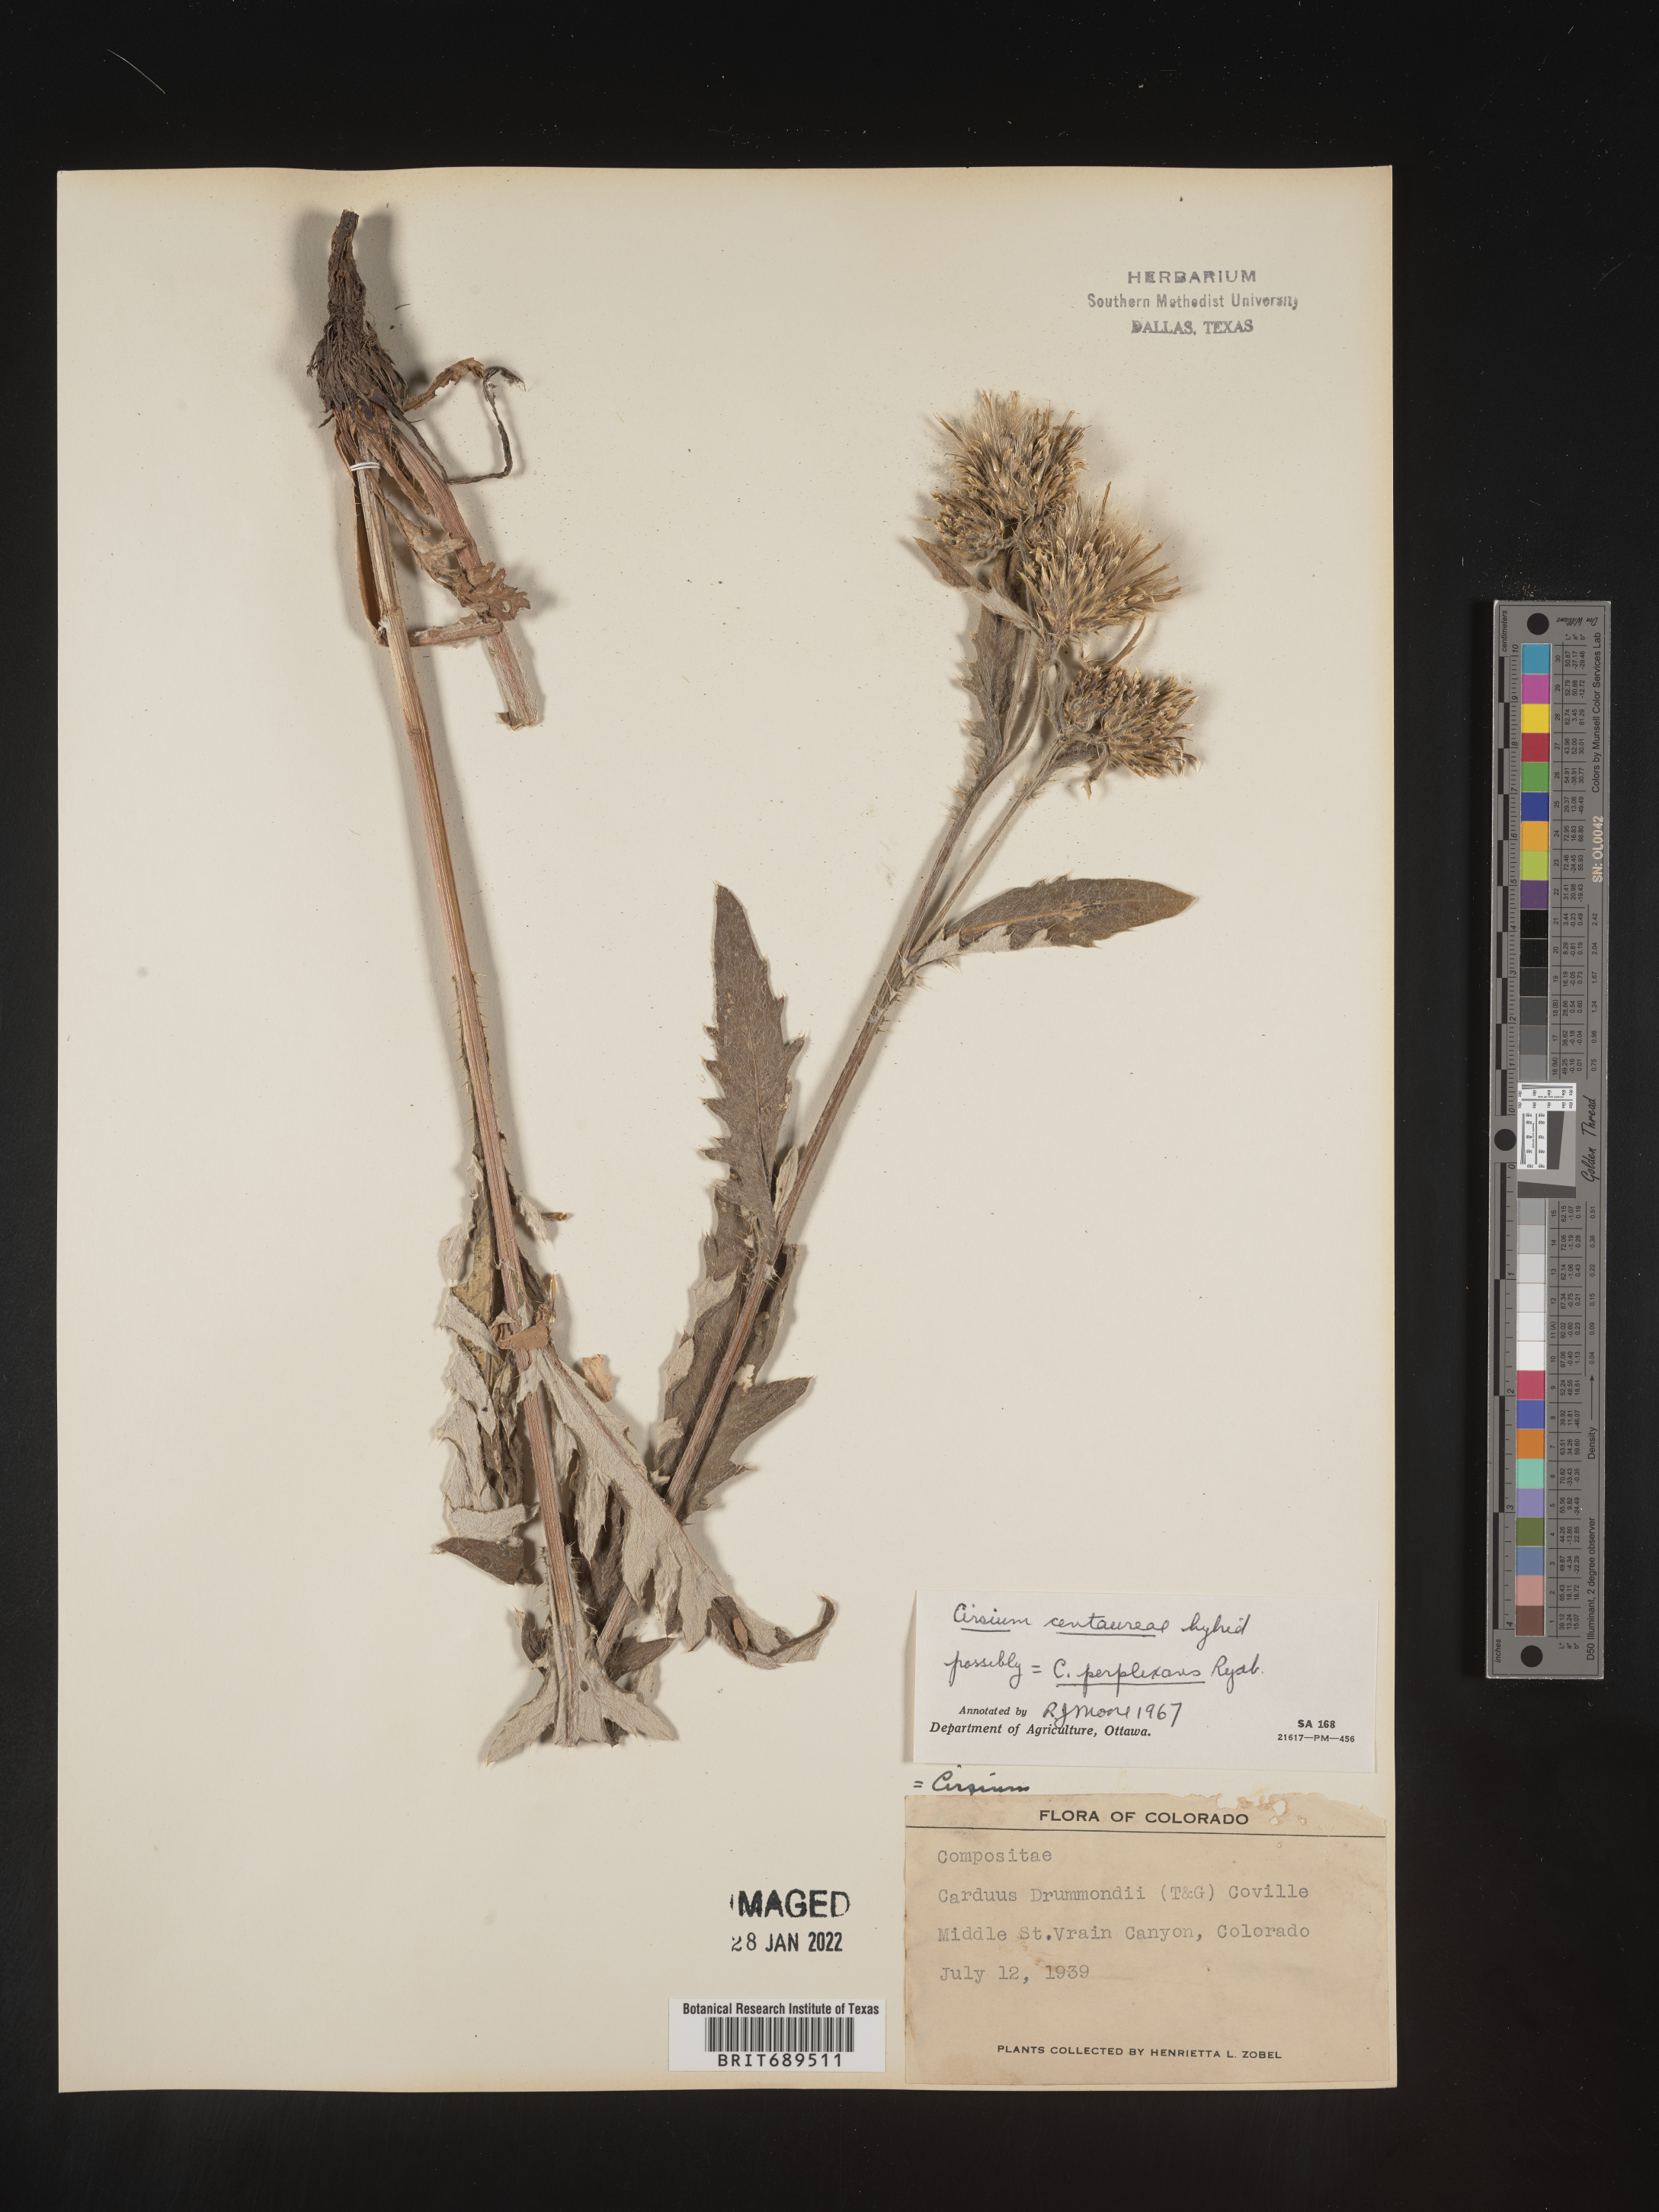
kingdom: Plantae
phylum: Tracheophyta
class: Magnoliopsida
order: Asterales
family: Asteraceae
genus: Cirsium
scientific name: Cirsium centaureae
